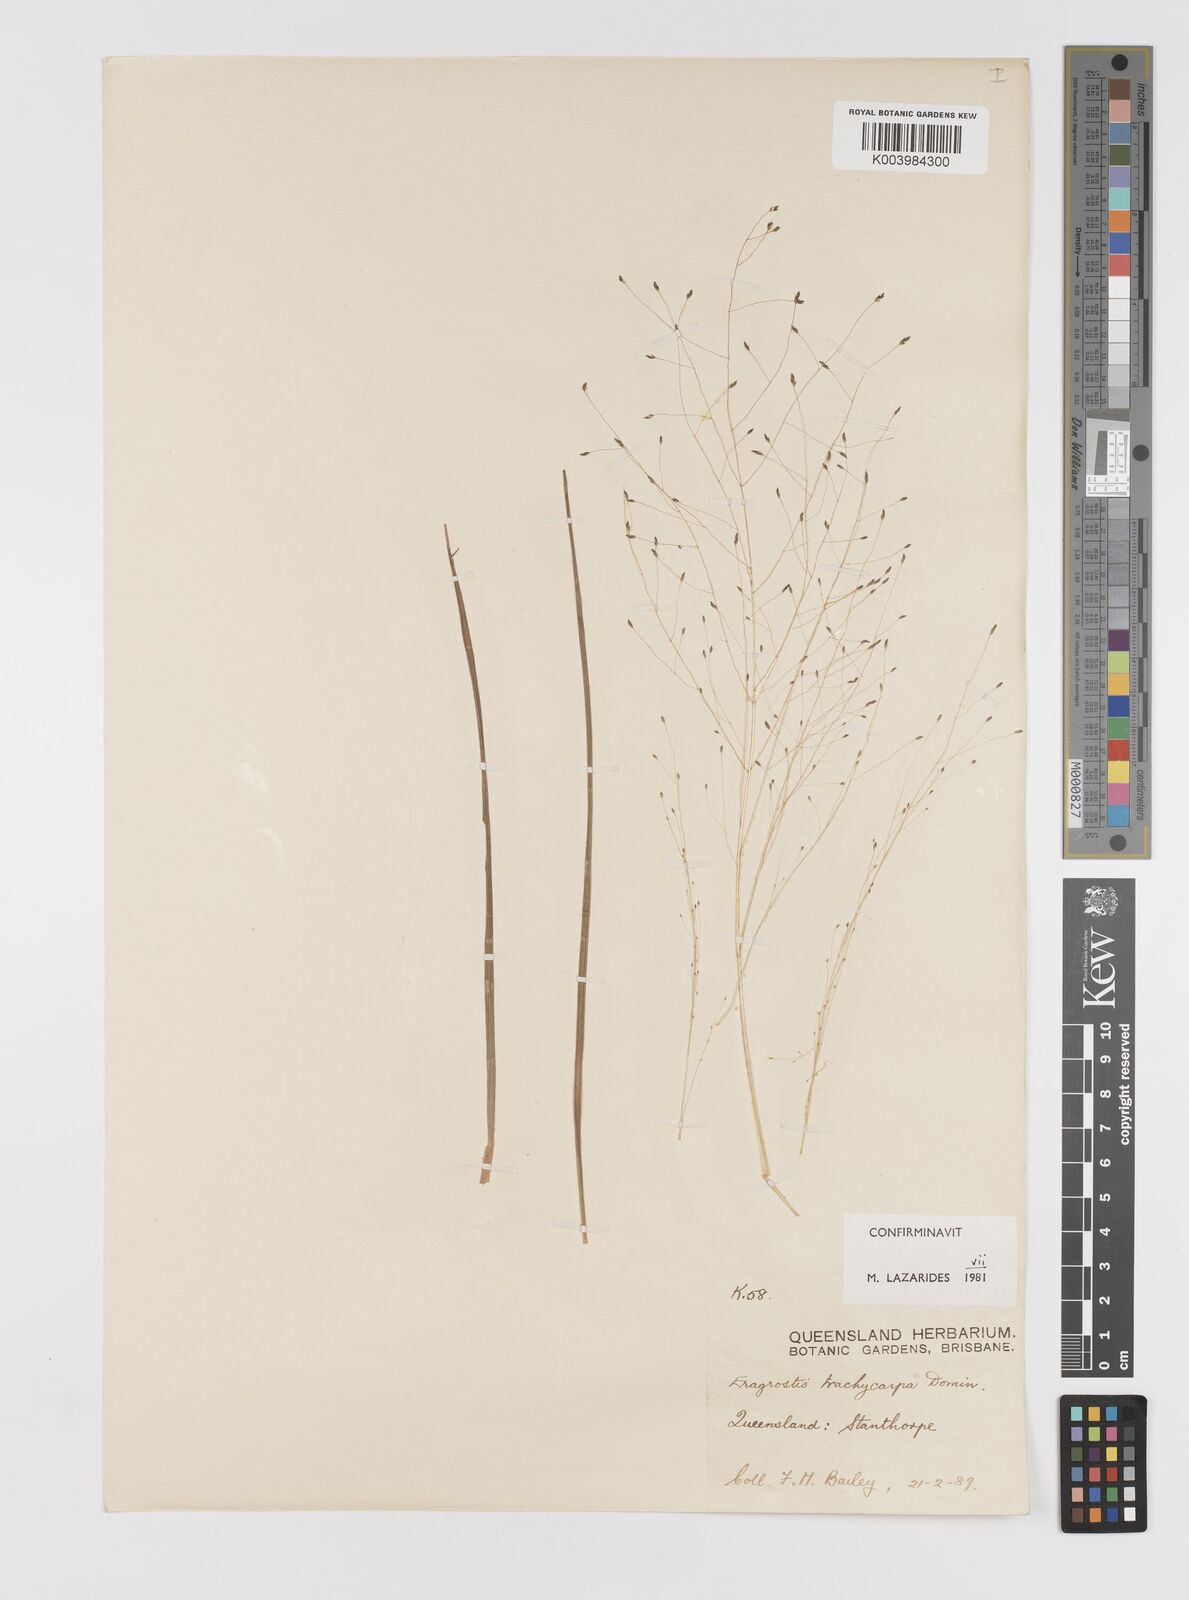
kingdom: Plantae
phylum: Tracheophyta
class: Liliopsida
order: Poales
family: Poaceae
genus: Eragrostis
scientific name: Eragrostis trachycarpa
